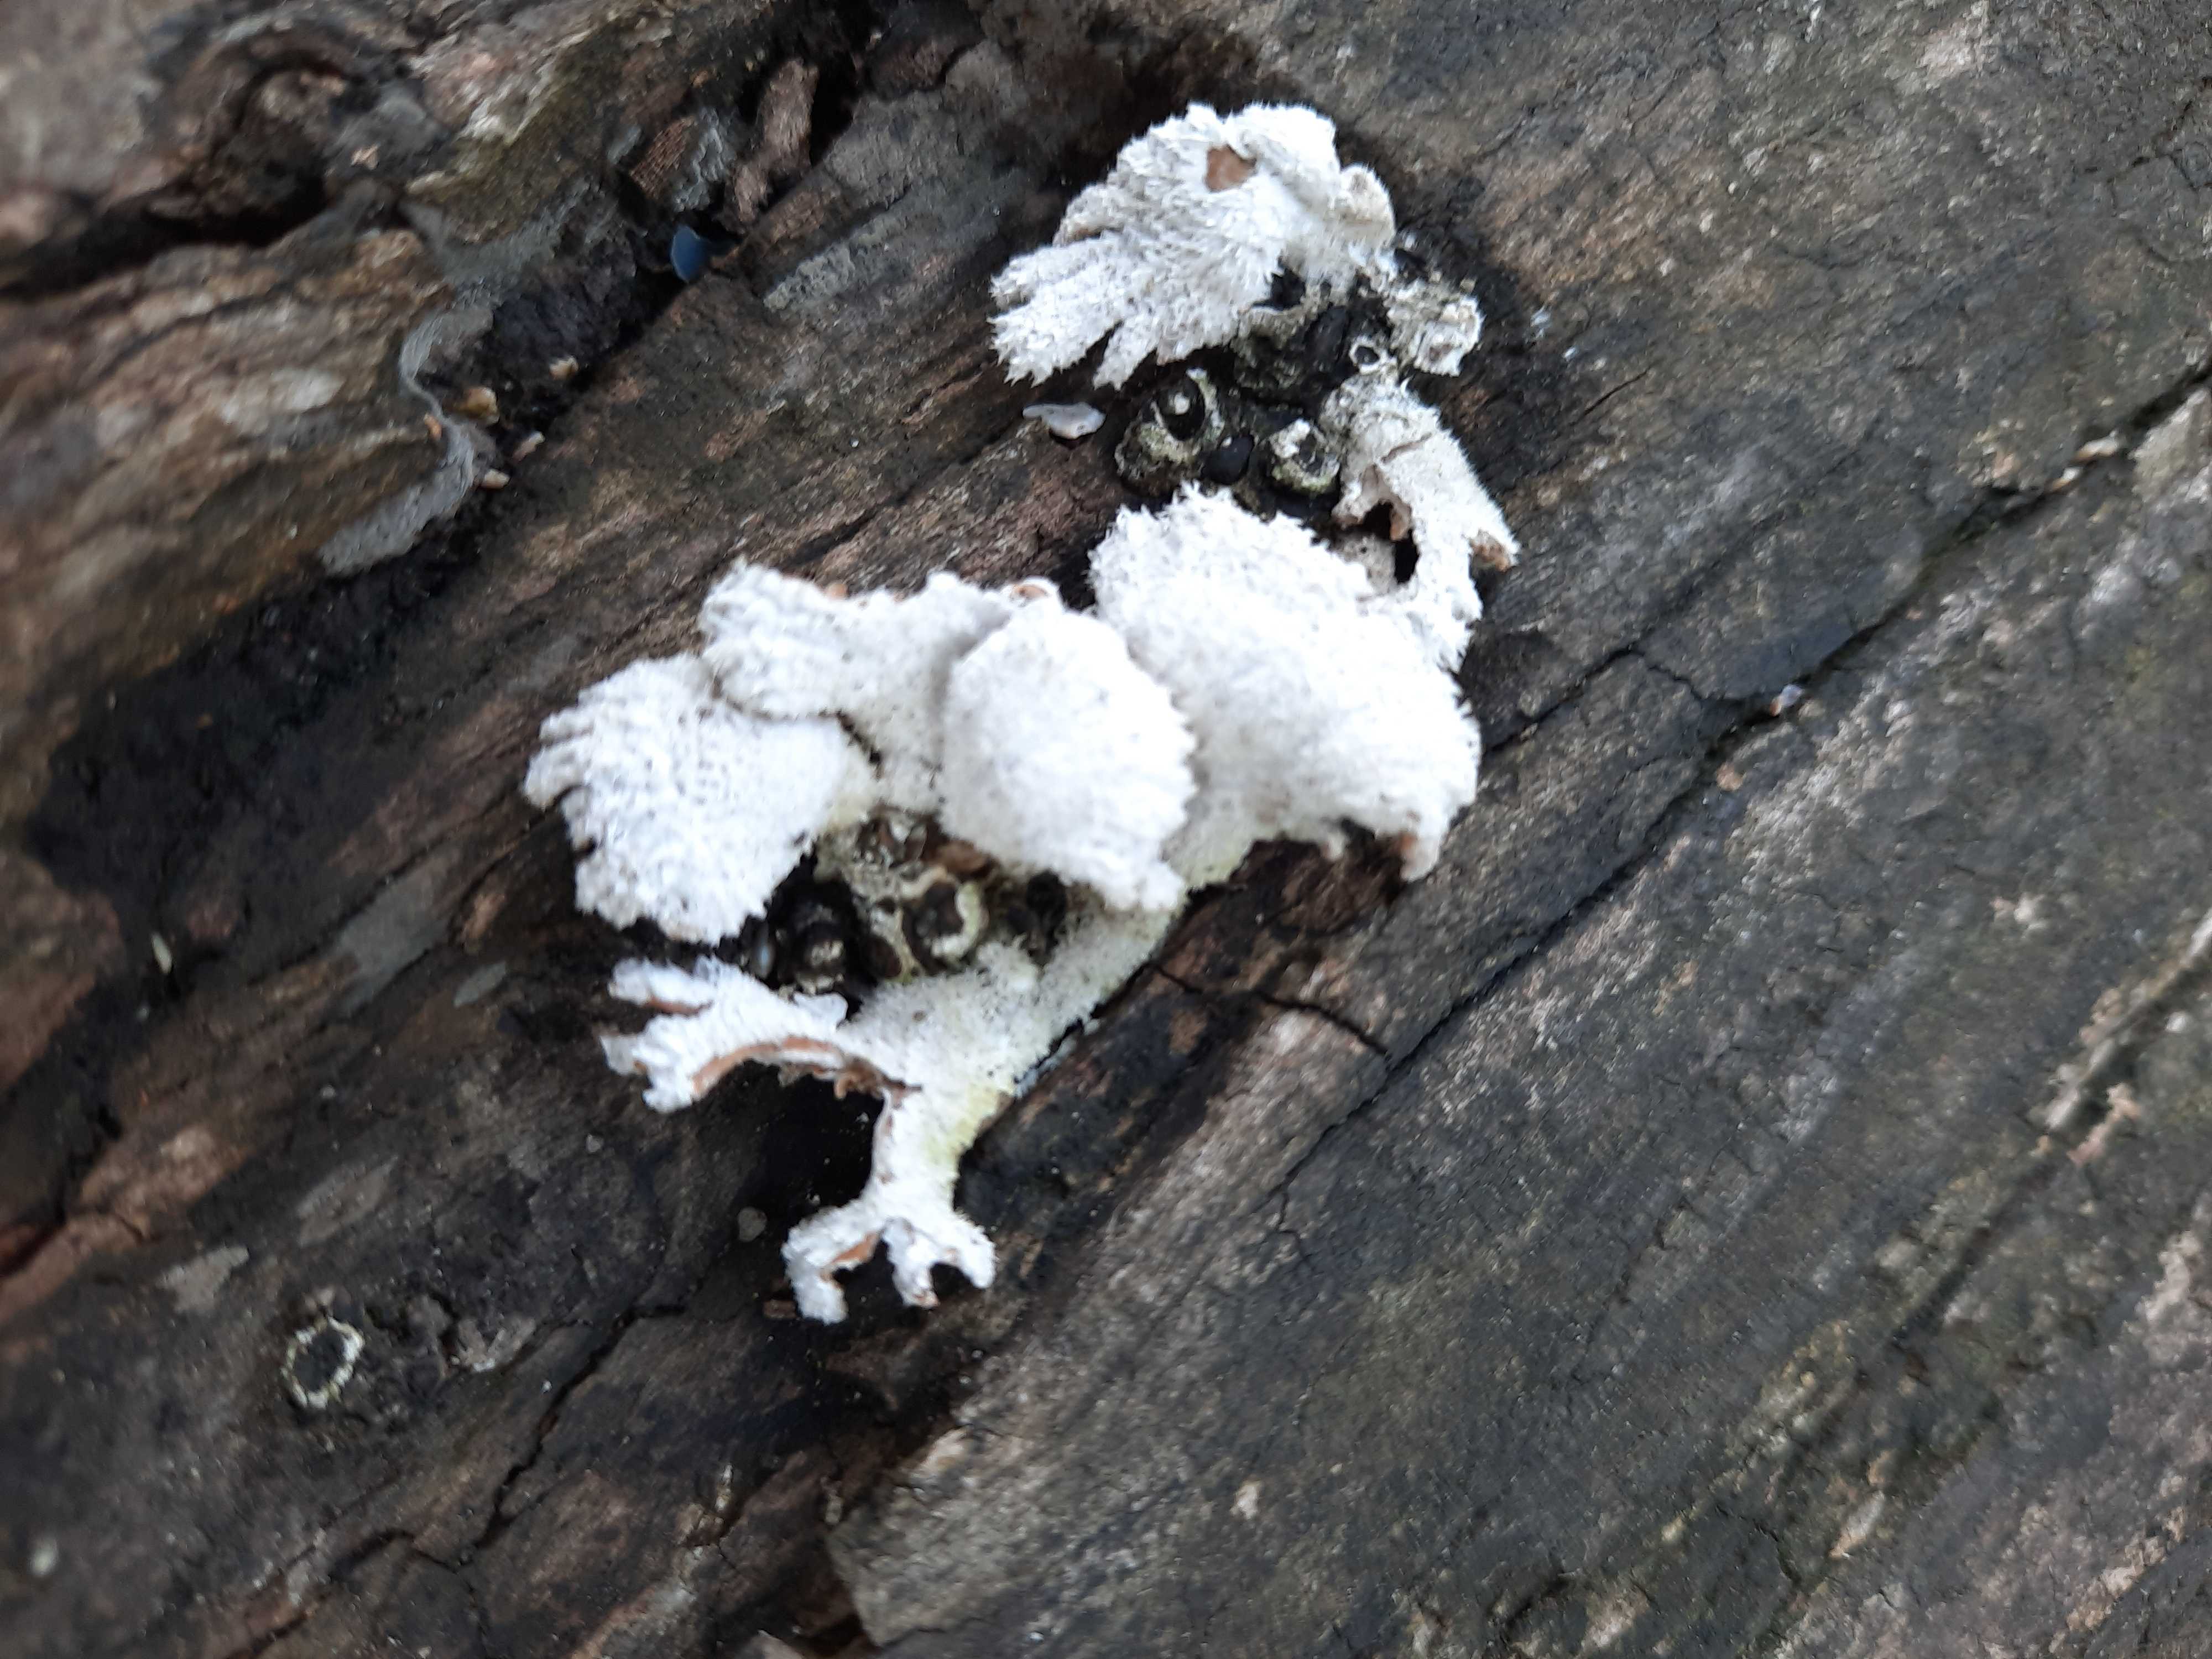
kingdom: Fungi
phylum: Basidiomycota
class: Agaricomycetes
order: Agaricales
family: Schizophyllaceae
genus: Schizophyllum
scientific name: Schizophyllum commune
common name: kløvblad
